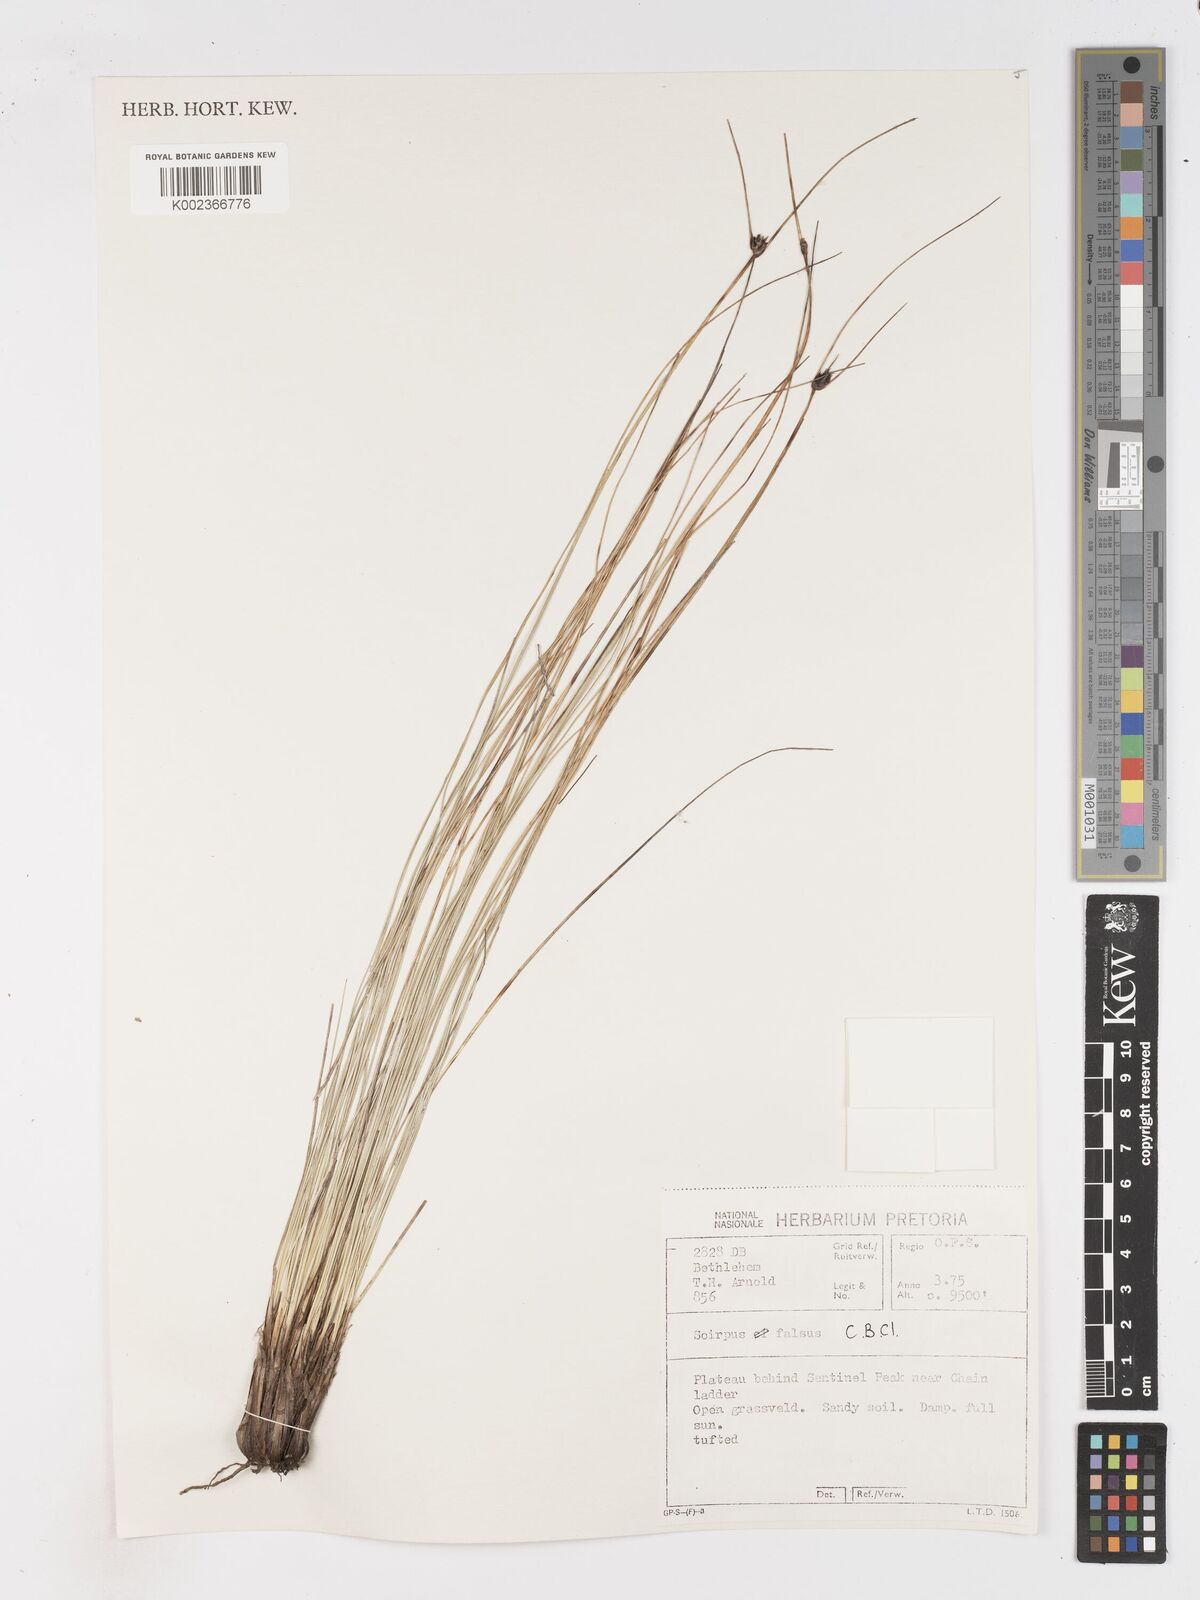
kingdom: Plantae
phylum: Tracheophyta
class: Liliopsida
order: Poales
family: Cyperaceae
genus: Dracoscirpoides
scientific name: Dracoscirpoides falsa
